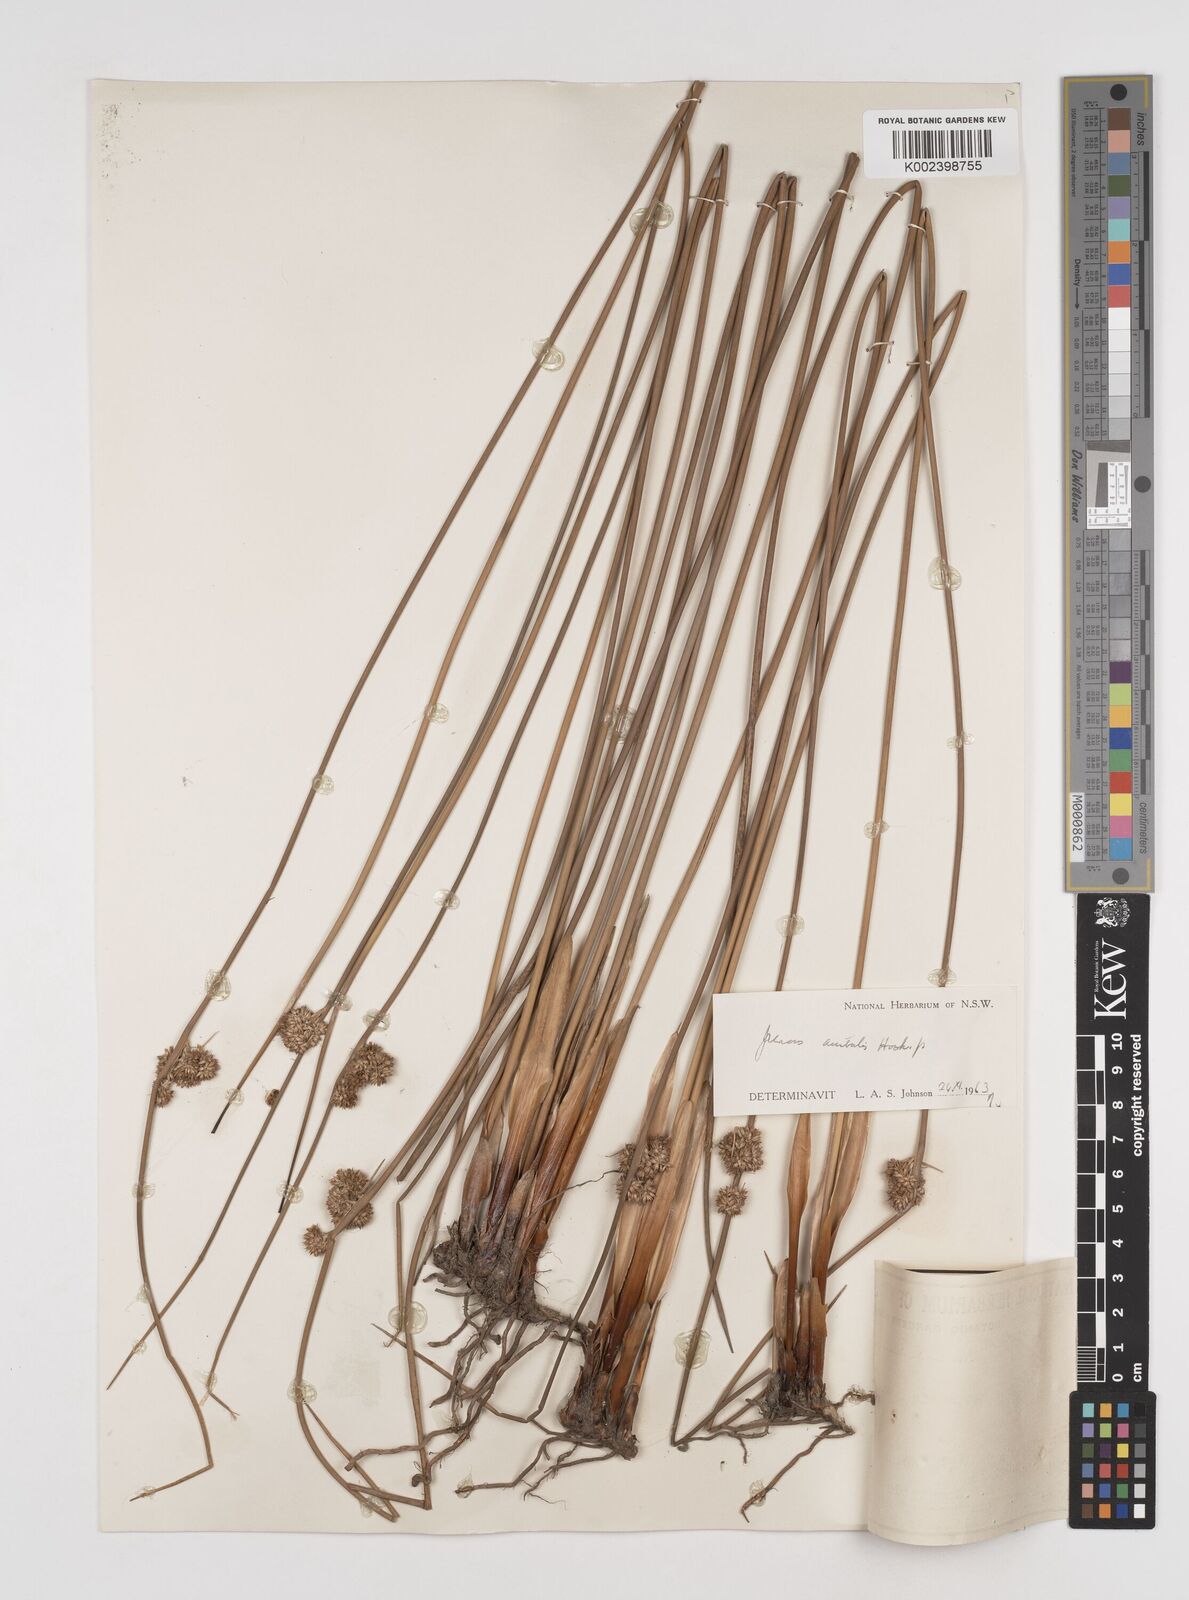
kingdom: Plantae
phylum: Tracheophyta
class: Liliopsida
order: Poales
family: Juncaceae
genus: Juncus
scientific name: Juncus australis
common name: Austral rush
